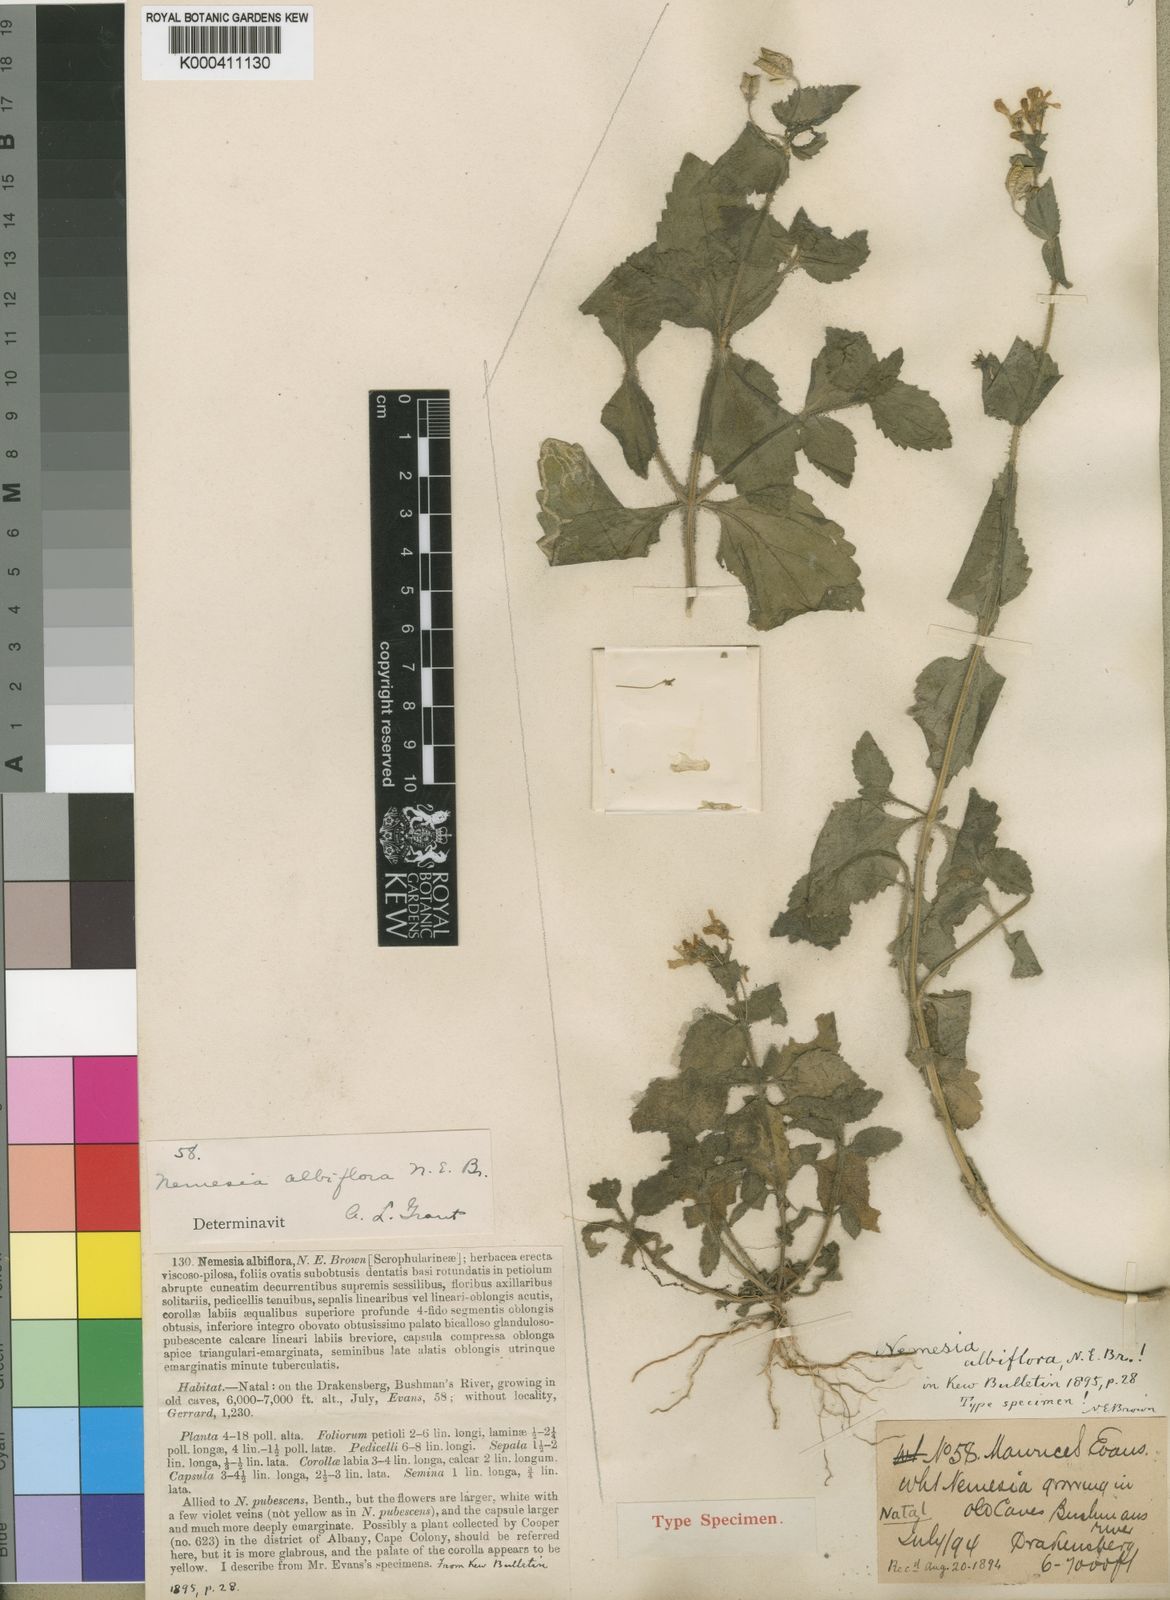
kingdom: Plantae
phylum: Tracheophyta
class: Magnoliopsida
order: Lamiales
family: Scrophulariaceae
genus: Nemesia
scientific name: Nemesia albiflora
